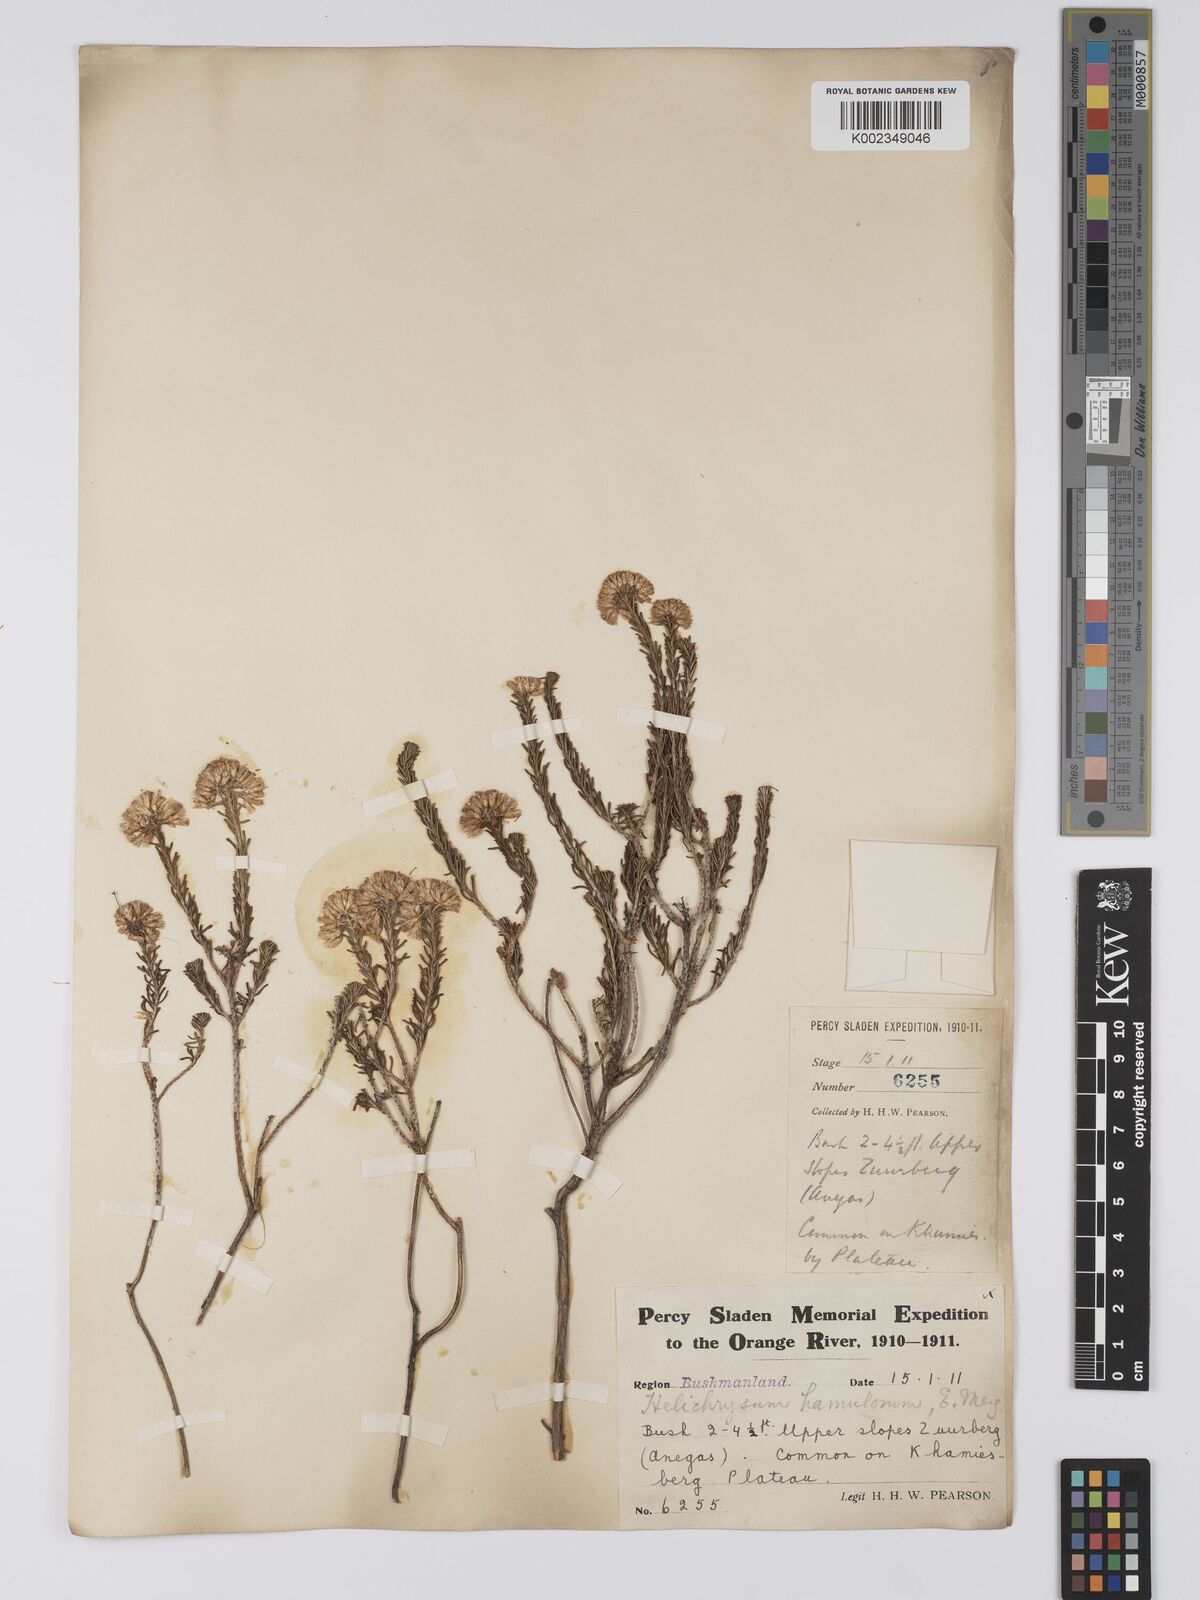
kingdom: Plantae
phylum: Tracheophyta
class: Magnoliopsida
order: Asterales
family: Asteraceae
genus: Helichrysum
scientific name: Helichrysum hamulosum
